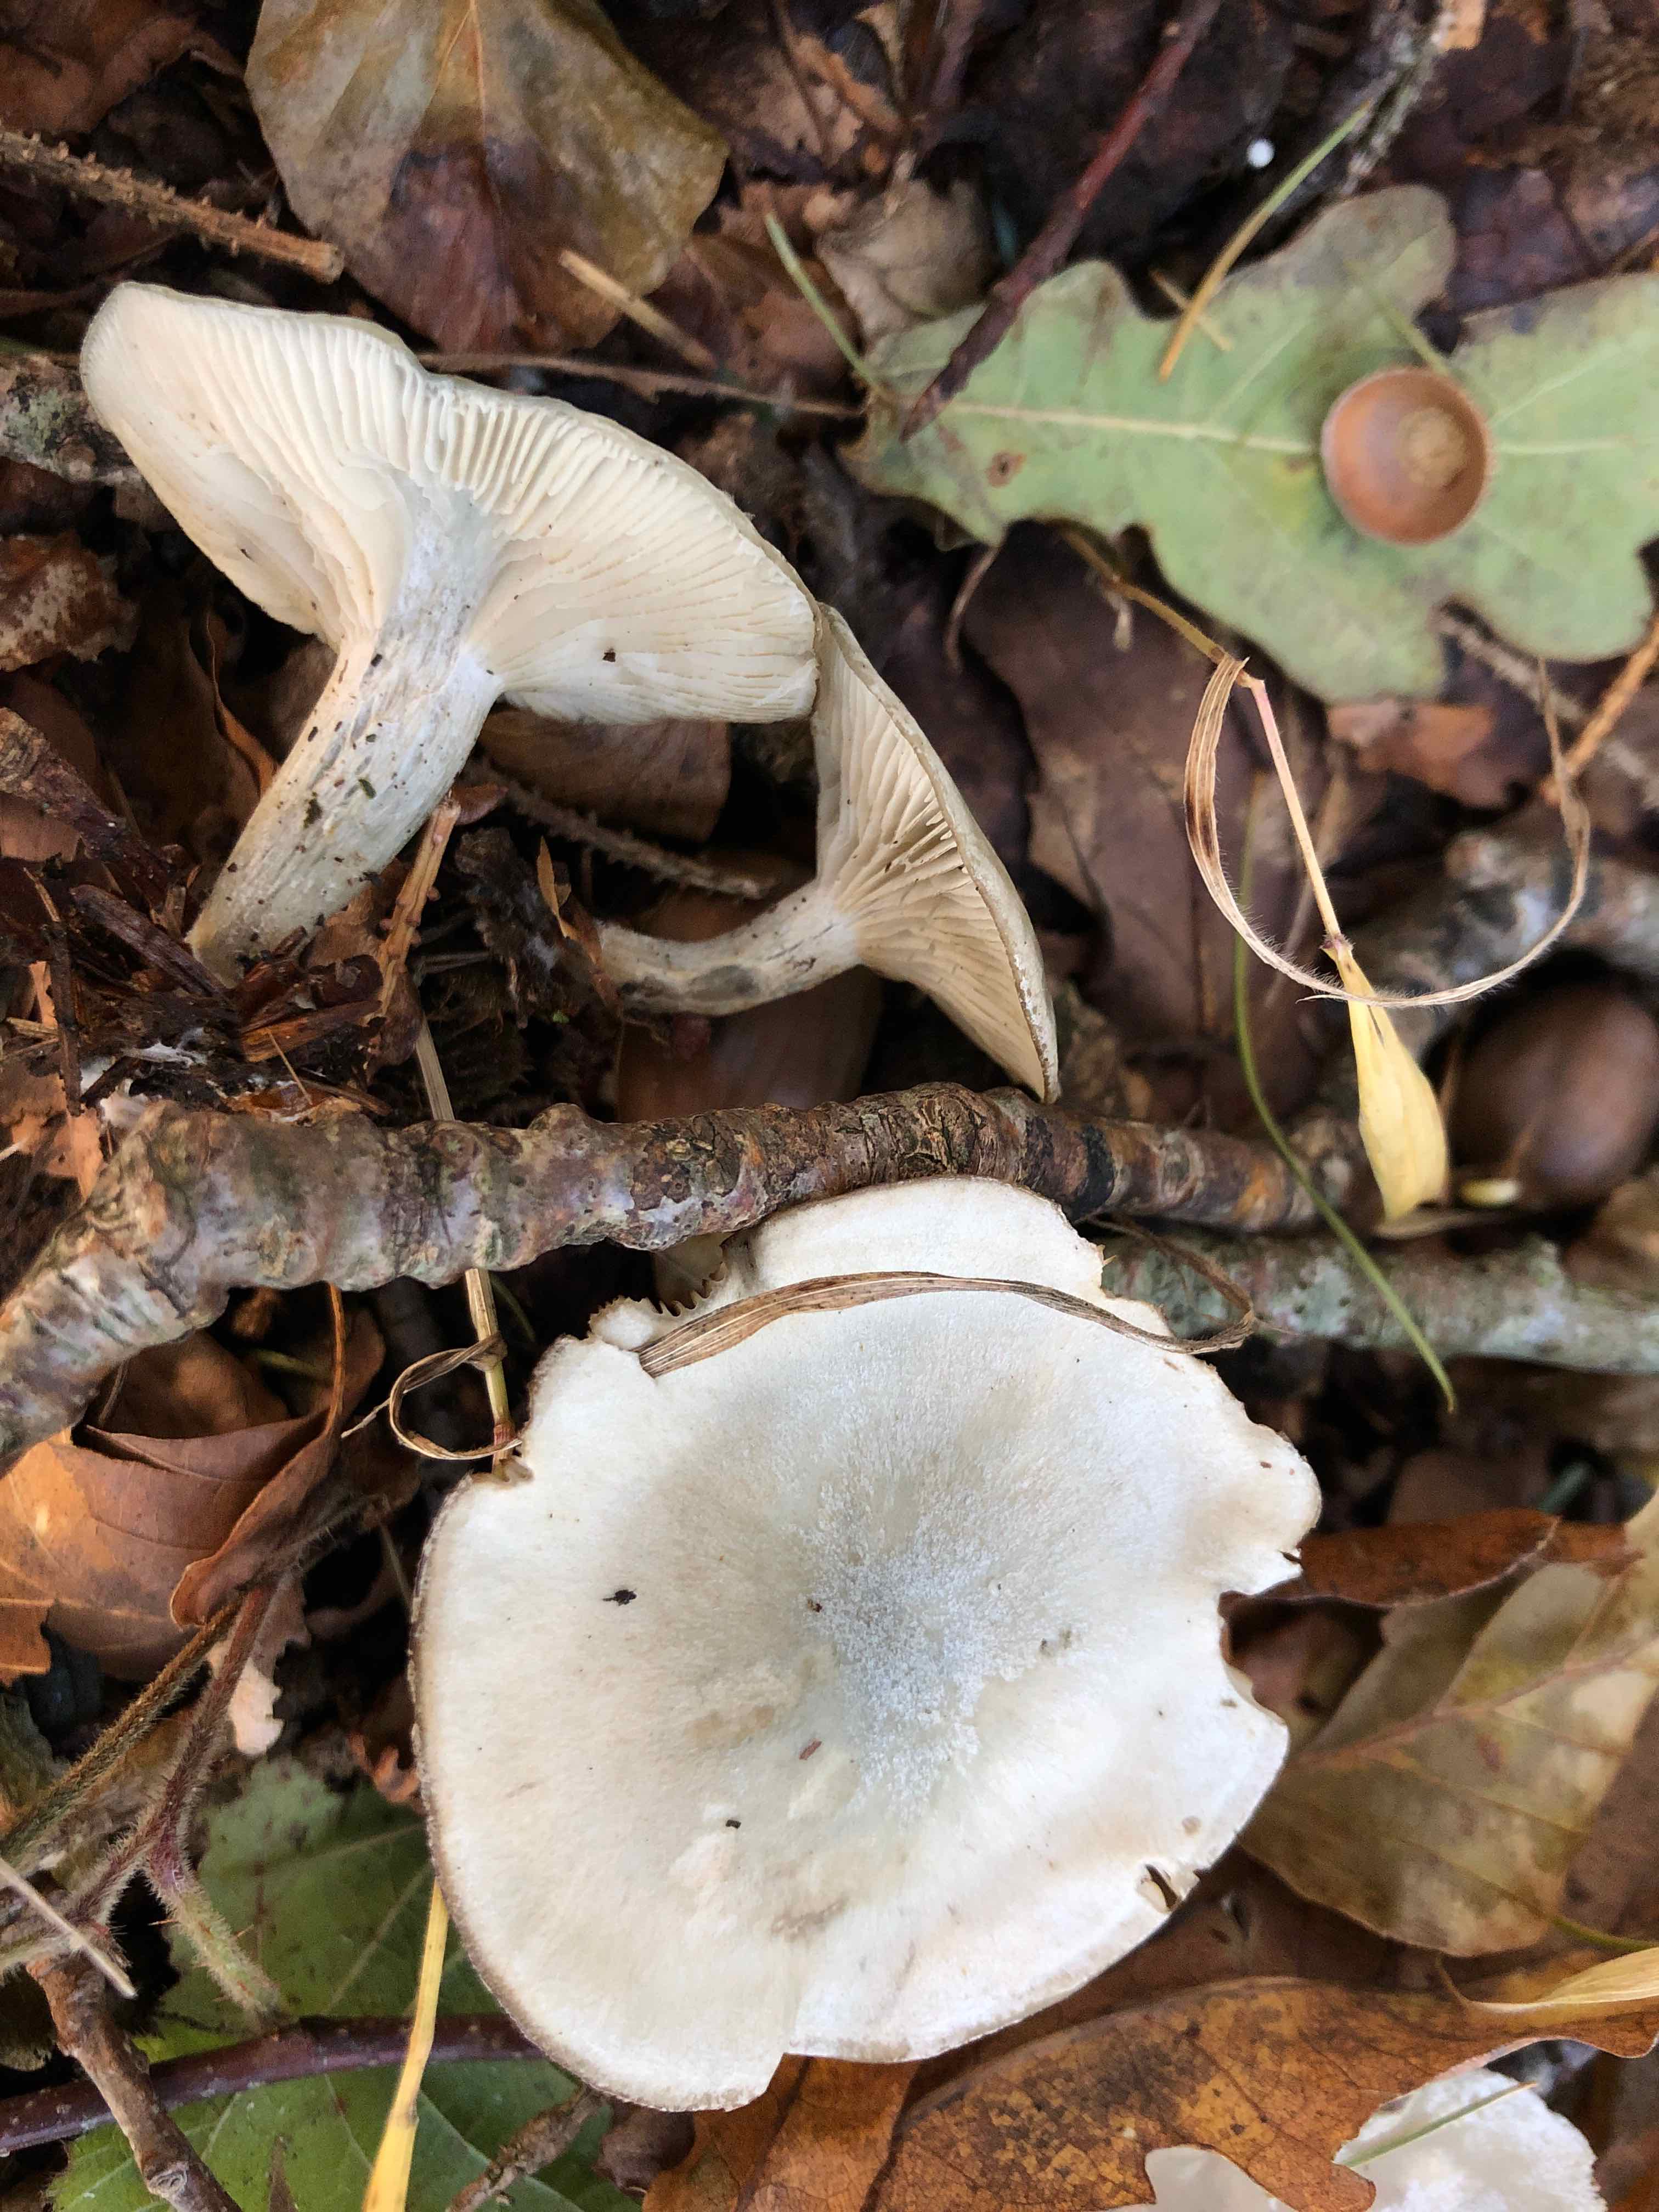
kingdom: Fungi
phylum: Basidiomycota
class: Agaricomycetes
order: Agaricales
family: Tricholomataceae
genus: Clitocybe
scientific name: Clitocybe odora
